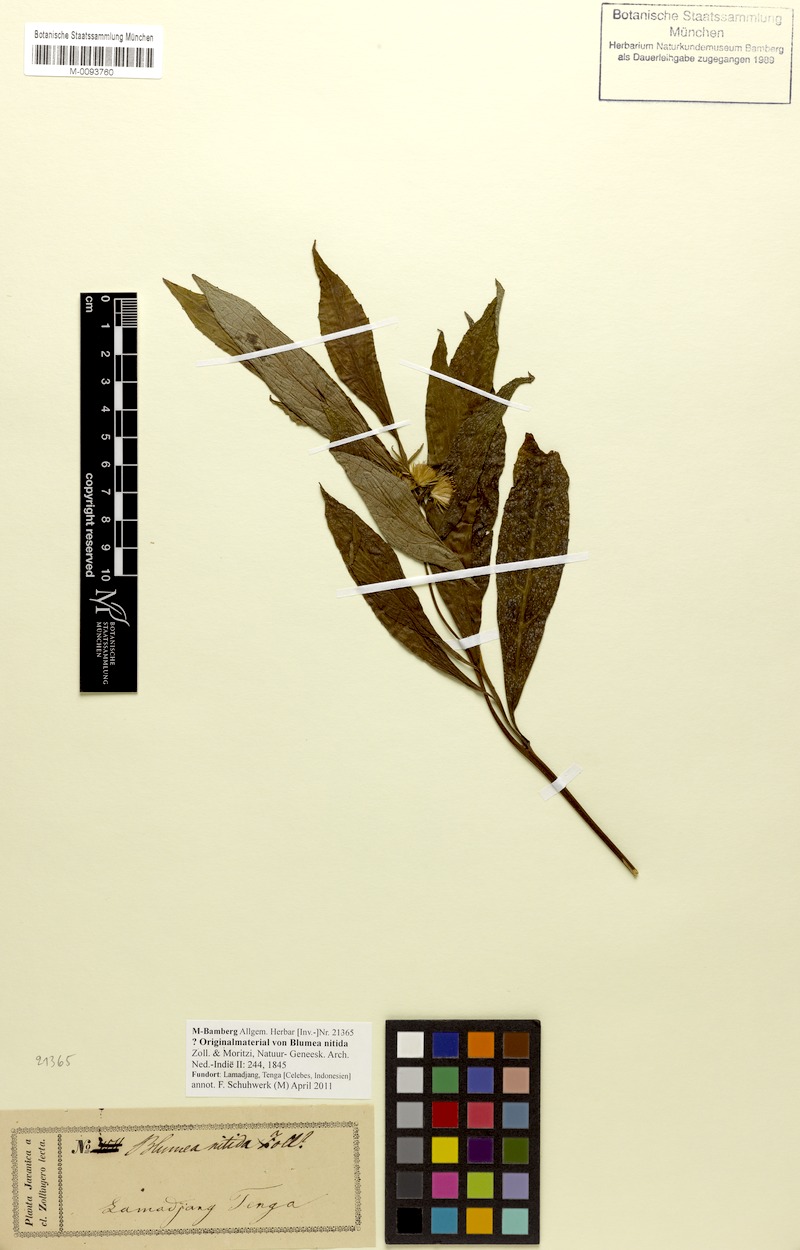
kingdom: Plantae
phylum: Tracheophyta
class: Magnoliopsida
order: Asterales
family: Asteraceae
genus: Blumea
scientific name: Blumea lanceolaria
